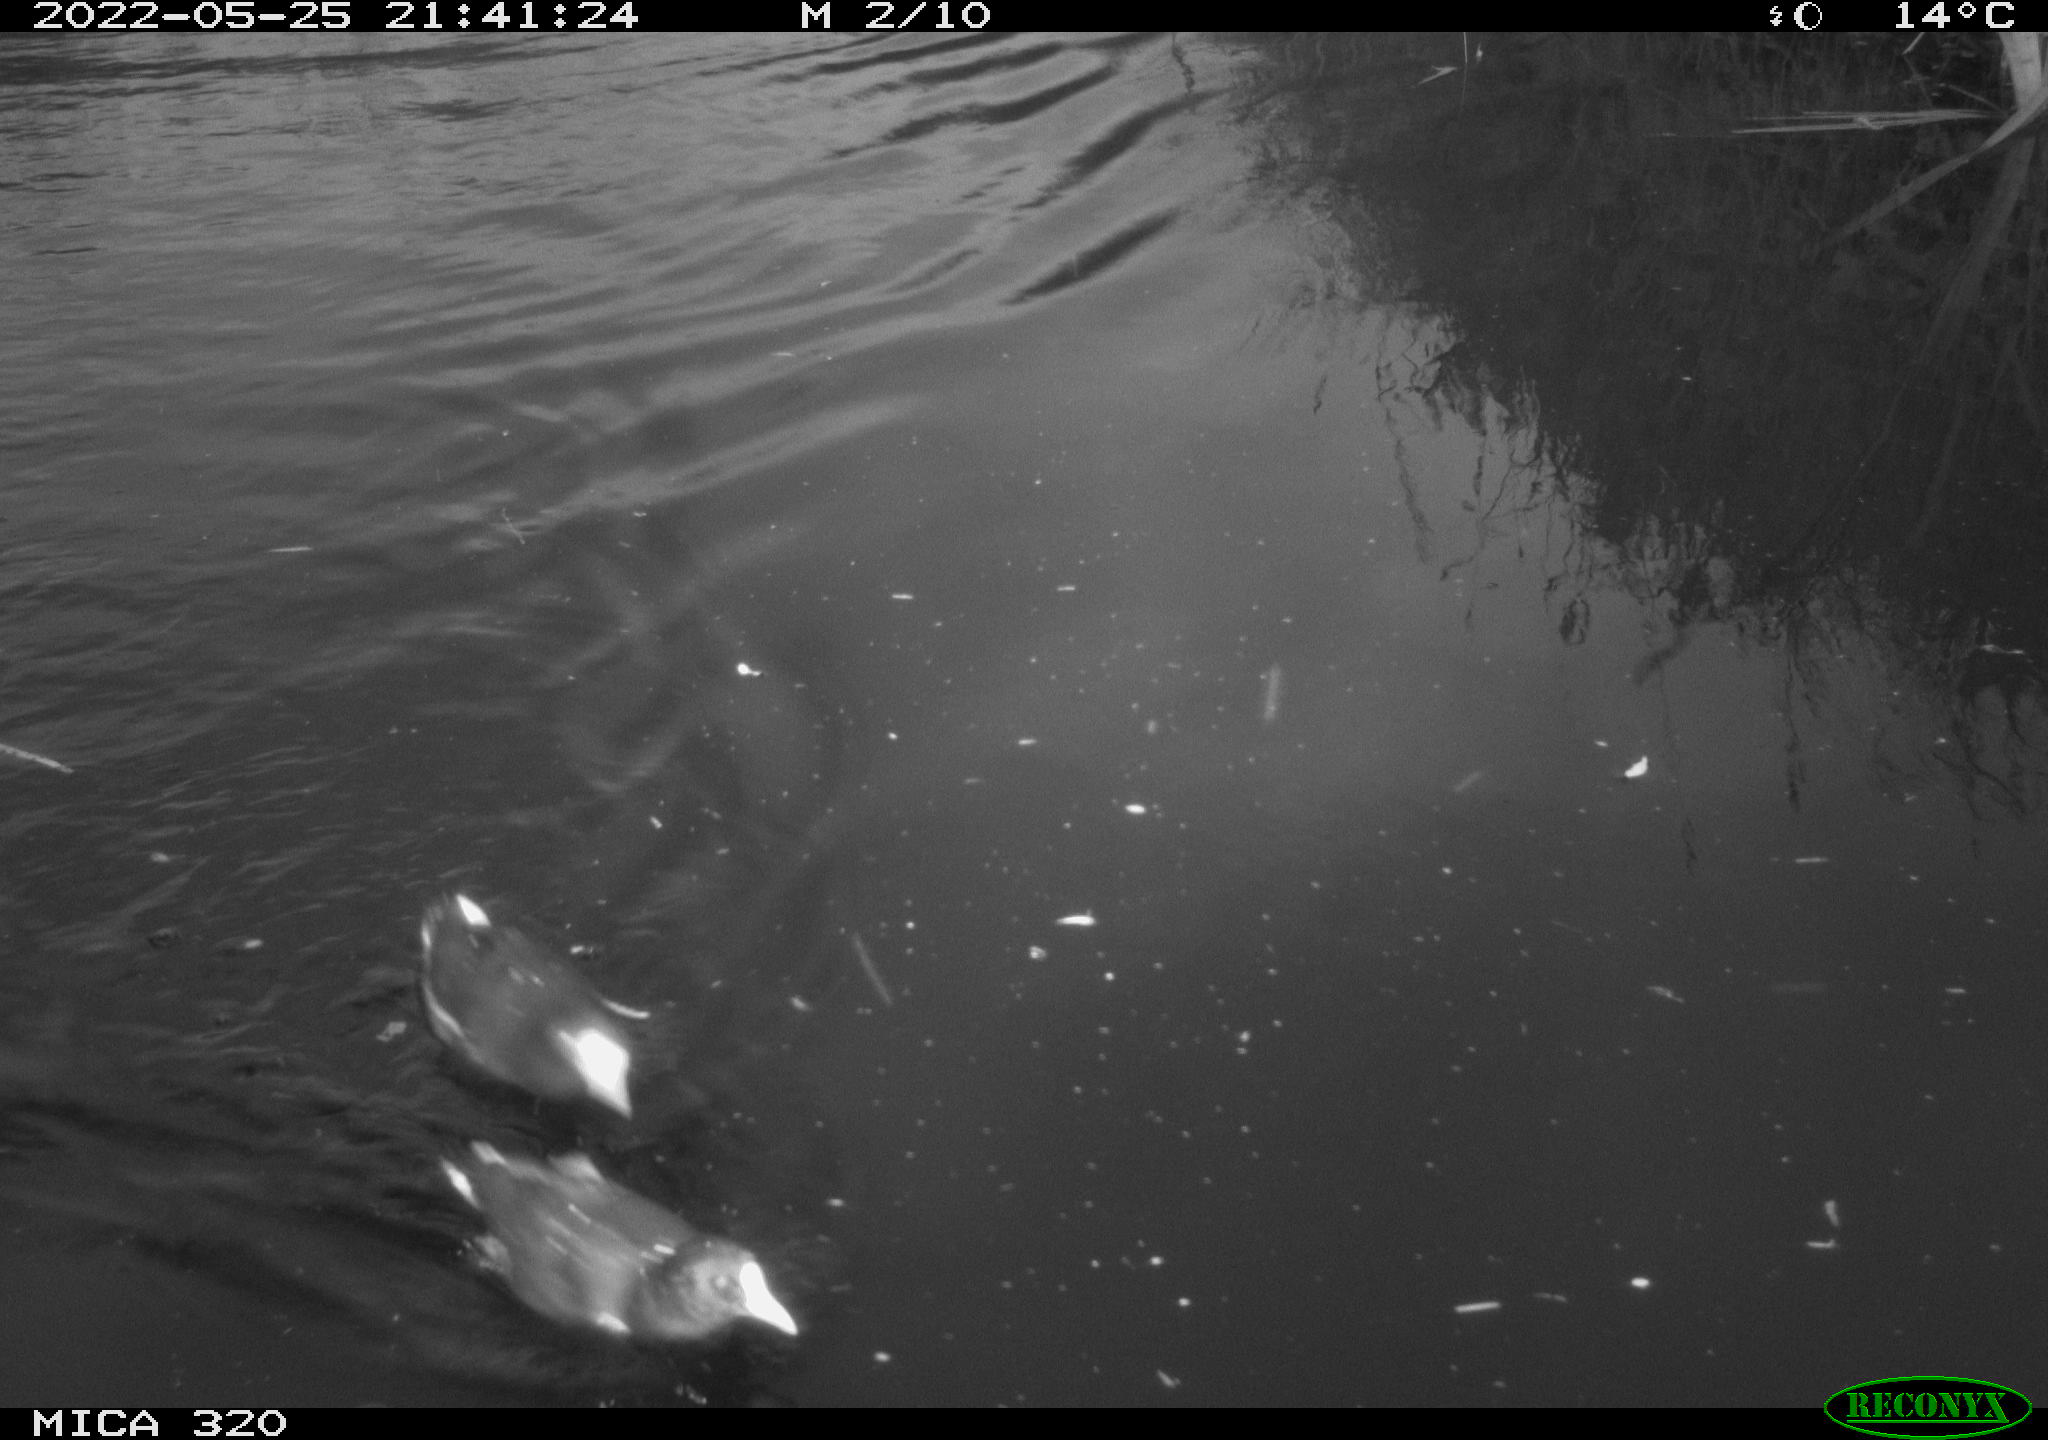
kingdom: Animalia
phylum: Chordata
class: Aves
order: Gruiformes
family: Rallidae
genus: Gallinula
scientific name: Gallinula chloropus
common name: Common moorhen
